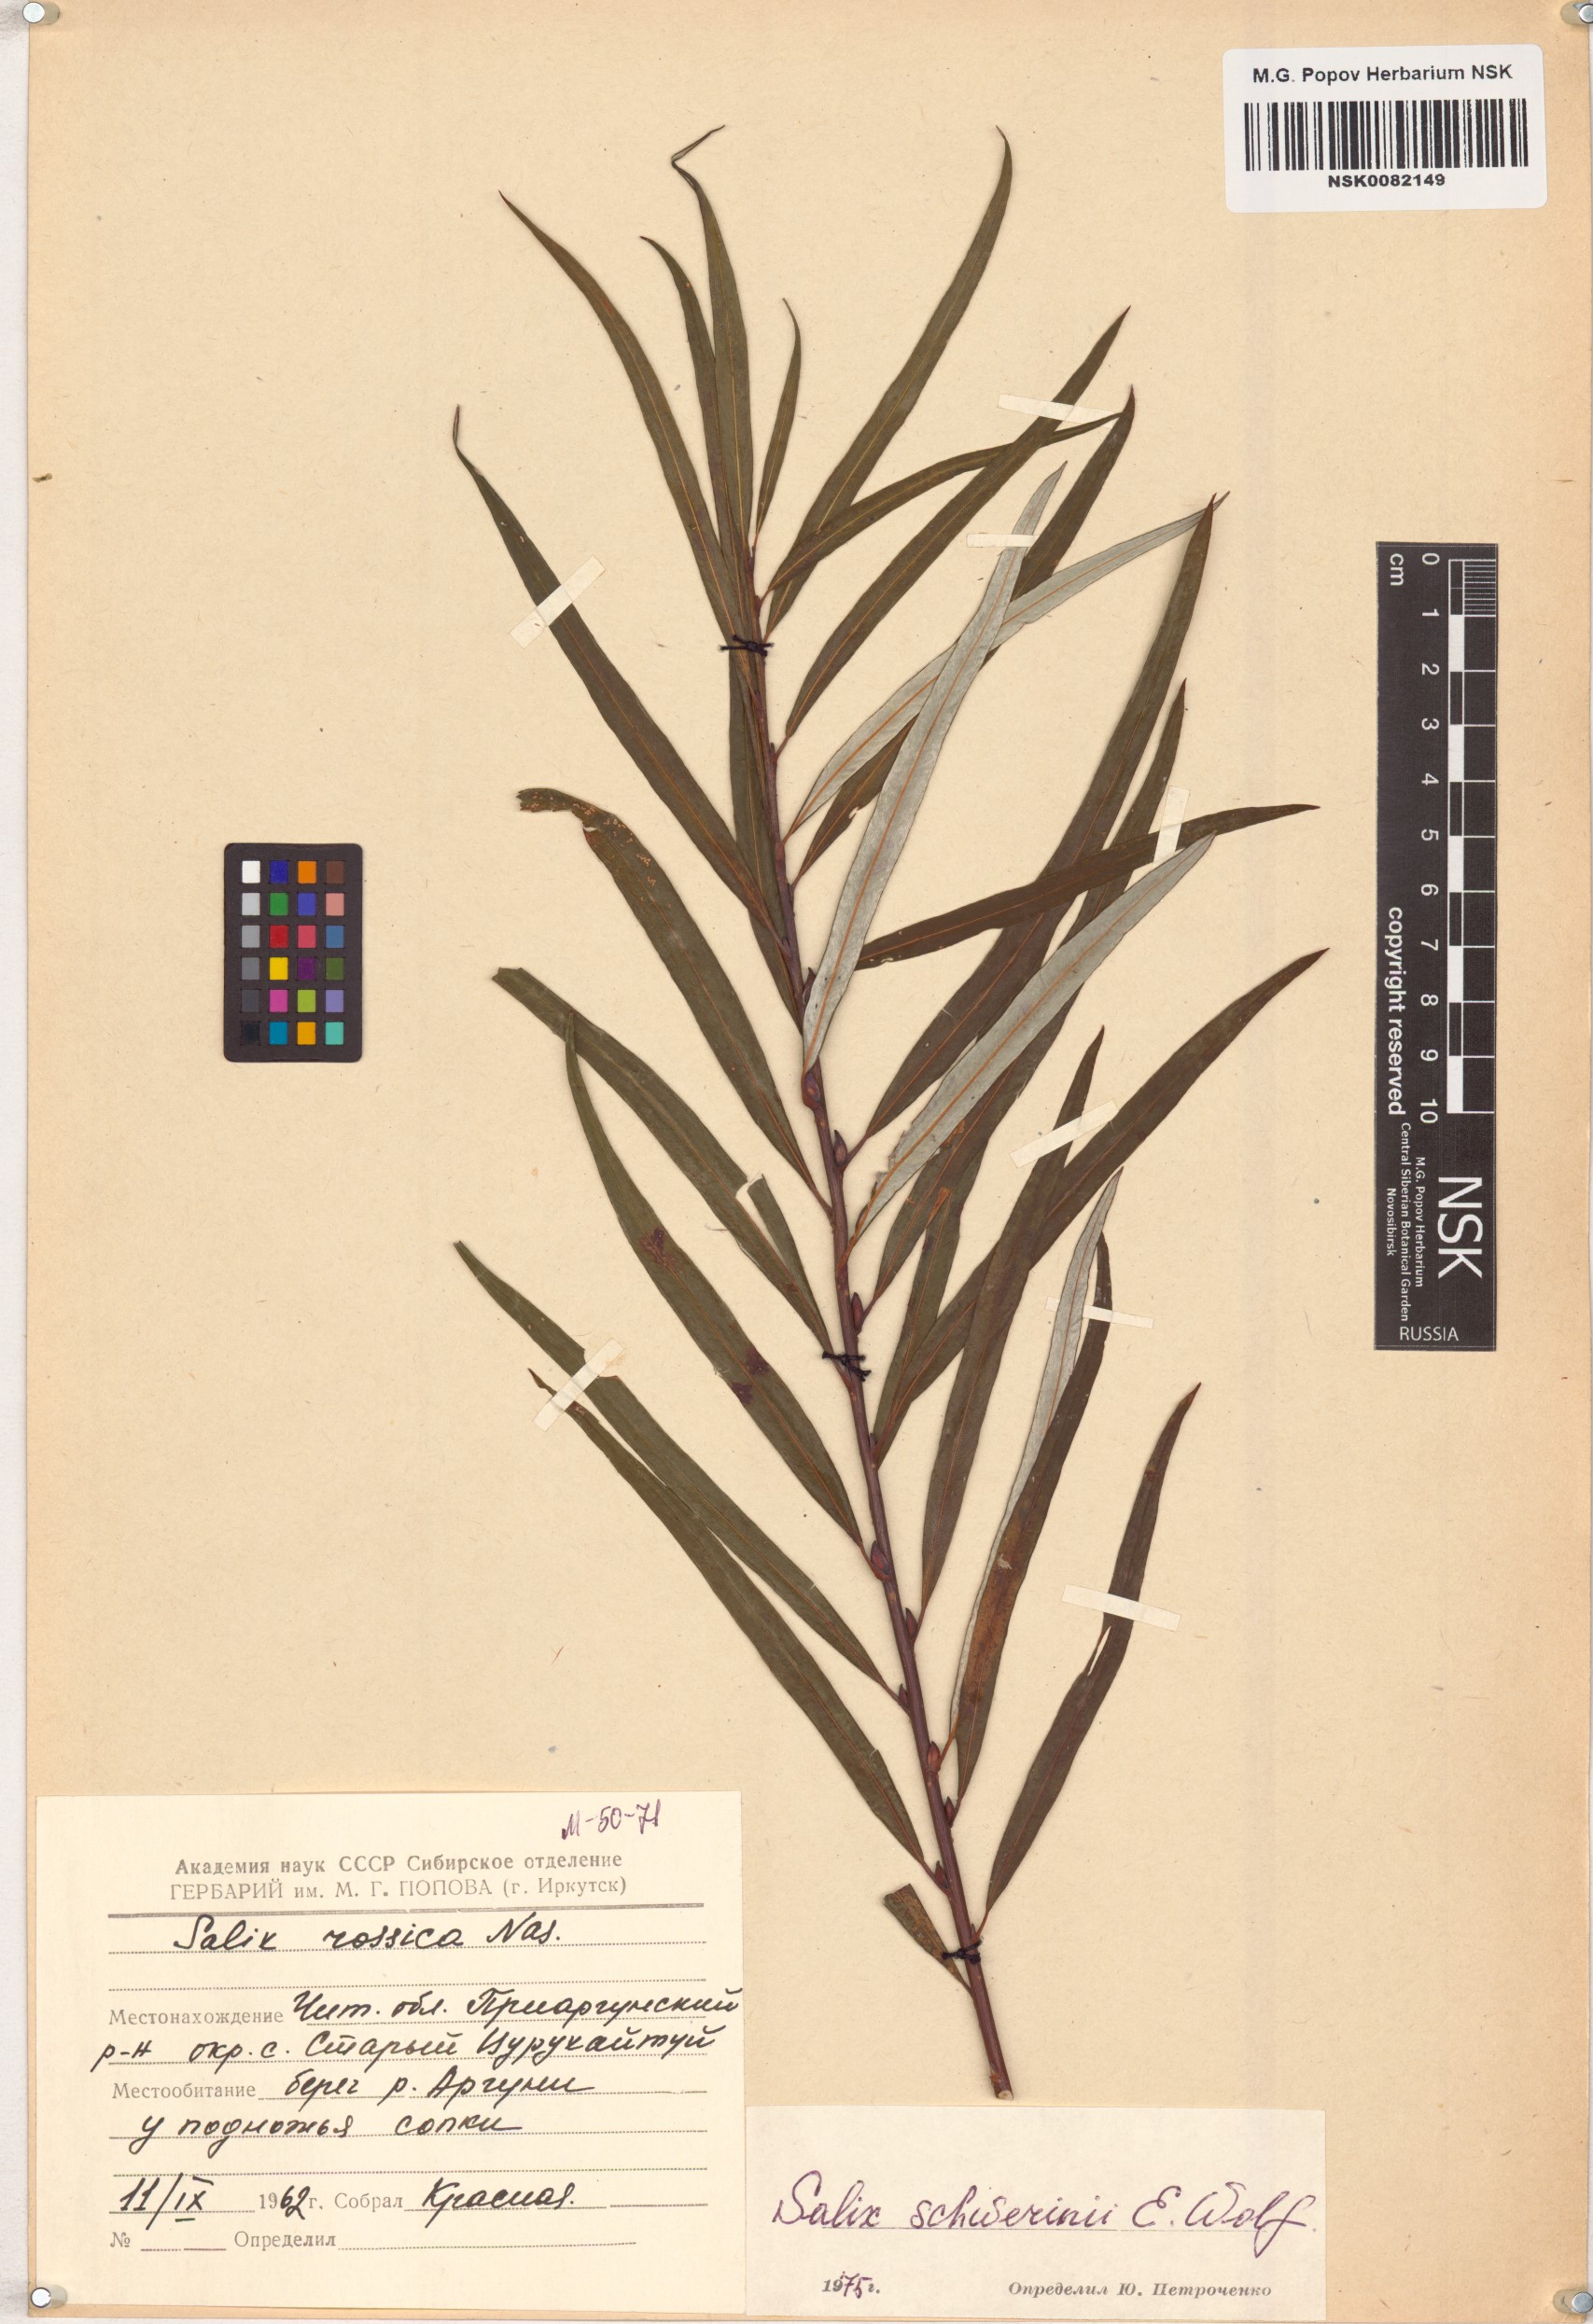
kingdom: Plantae
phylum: Tracheophyta
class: Magnoliopsida
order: Malpighiales
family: Salicaceae
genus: Salix
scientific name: Salix schwerinii
